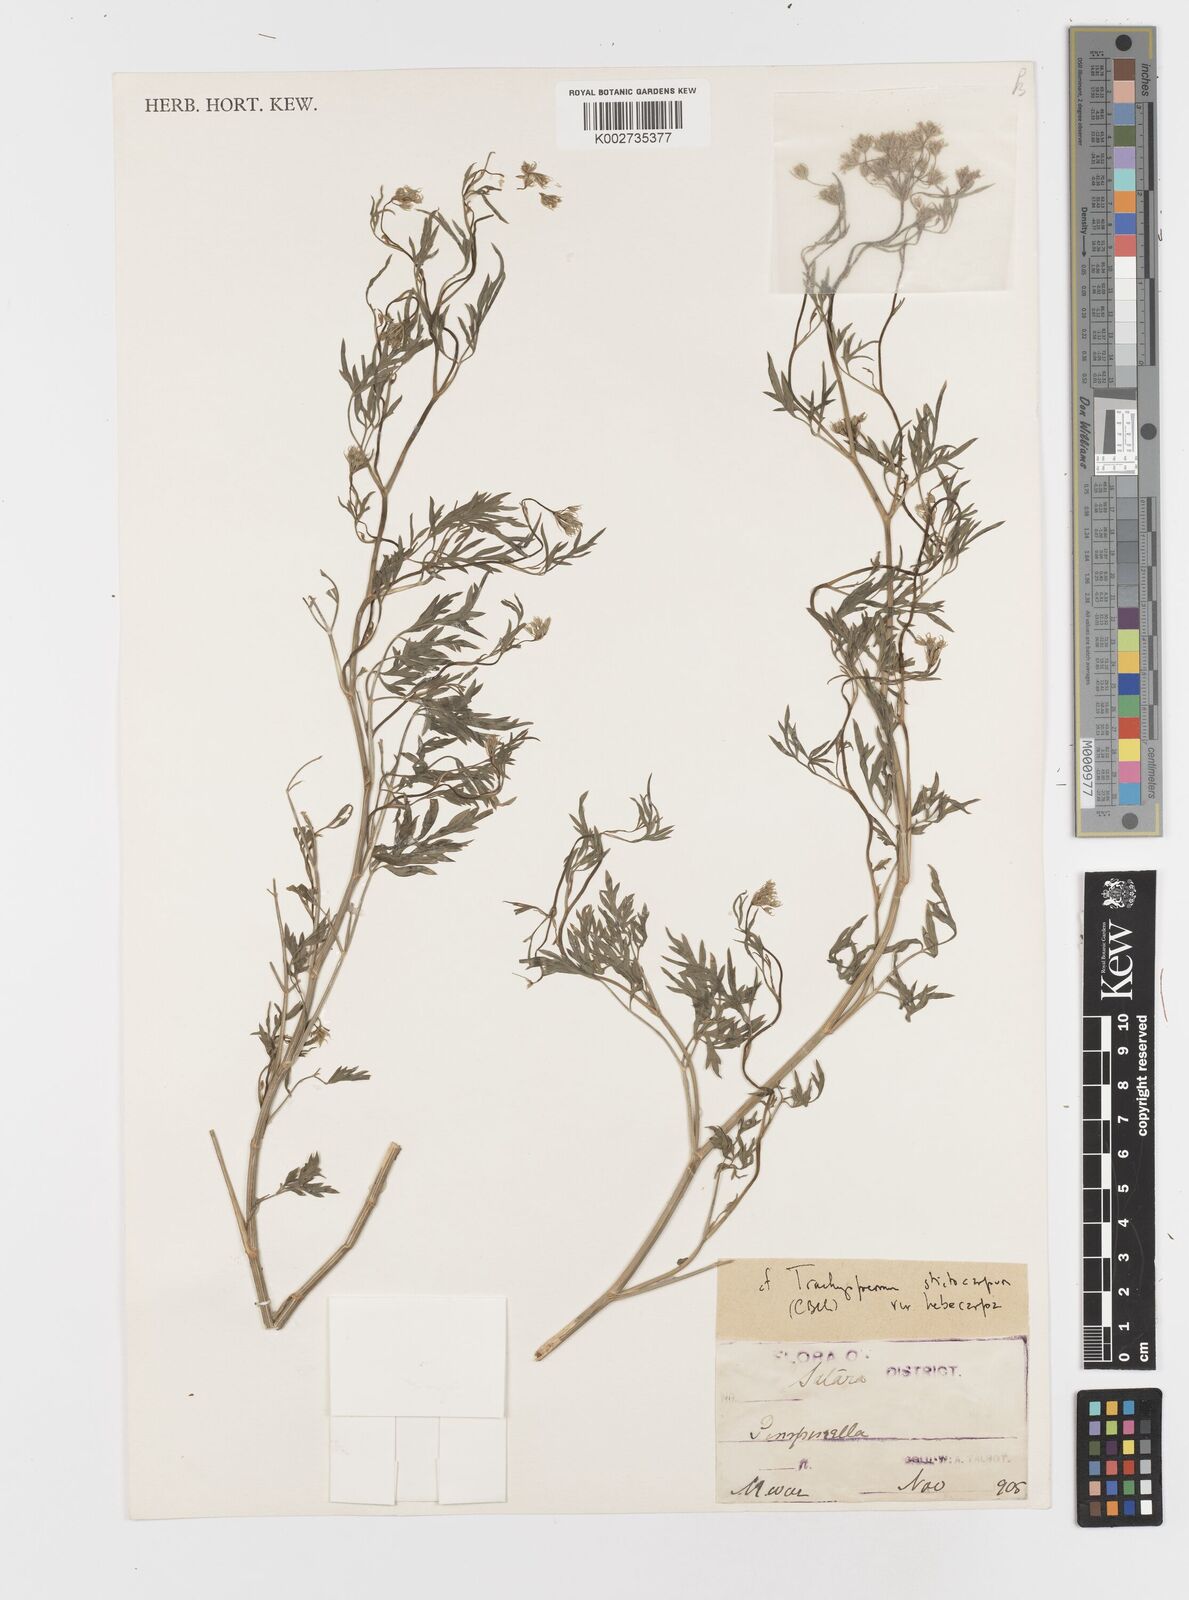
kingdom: Plantae
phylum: Tracheophyta
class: Magnoliopsida
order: Apiales
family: Apiaceae
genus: Psammogeton
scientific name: Psammogeton involucratum
